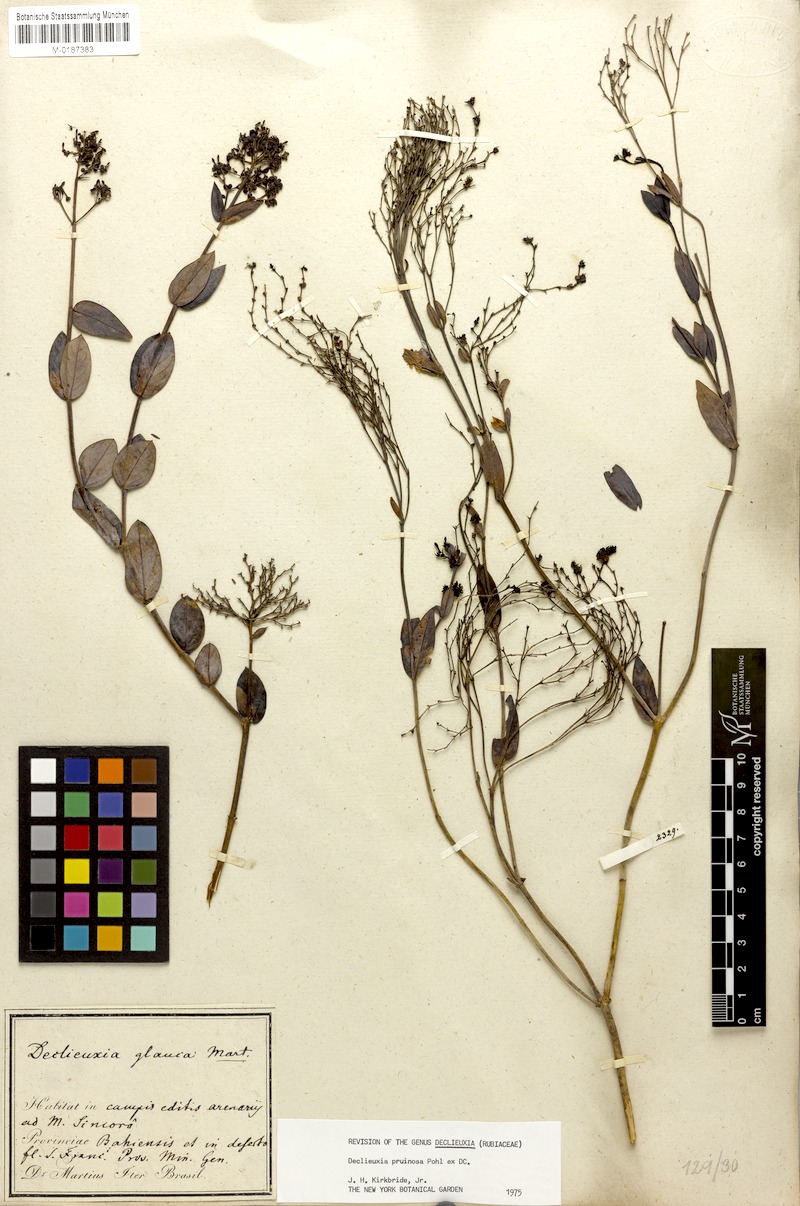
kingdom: Plantae
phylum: Tracheophyta
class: Magnoliopsida
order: Gentianales
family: Rubiaceae
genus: Declieuxia
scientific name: Declieuxia pruinosa
